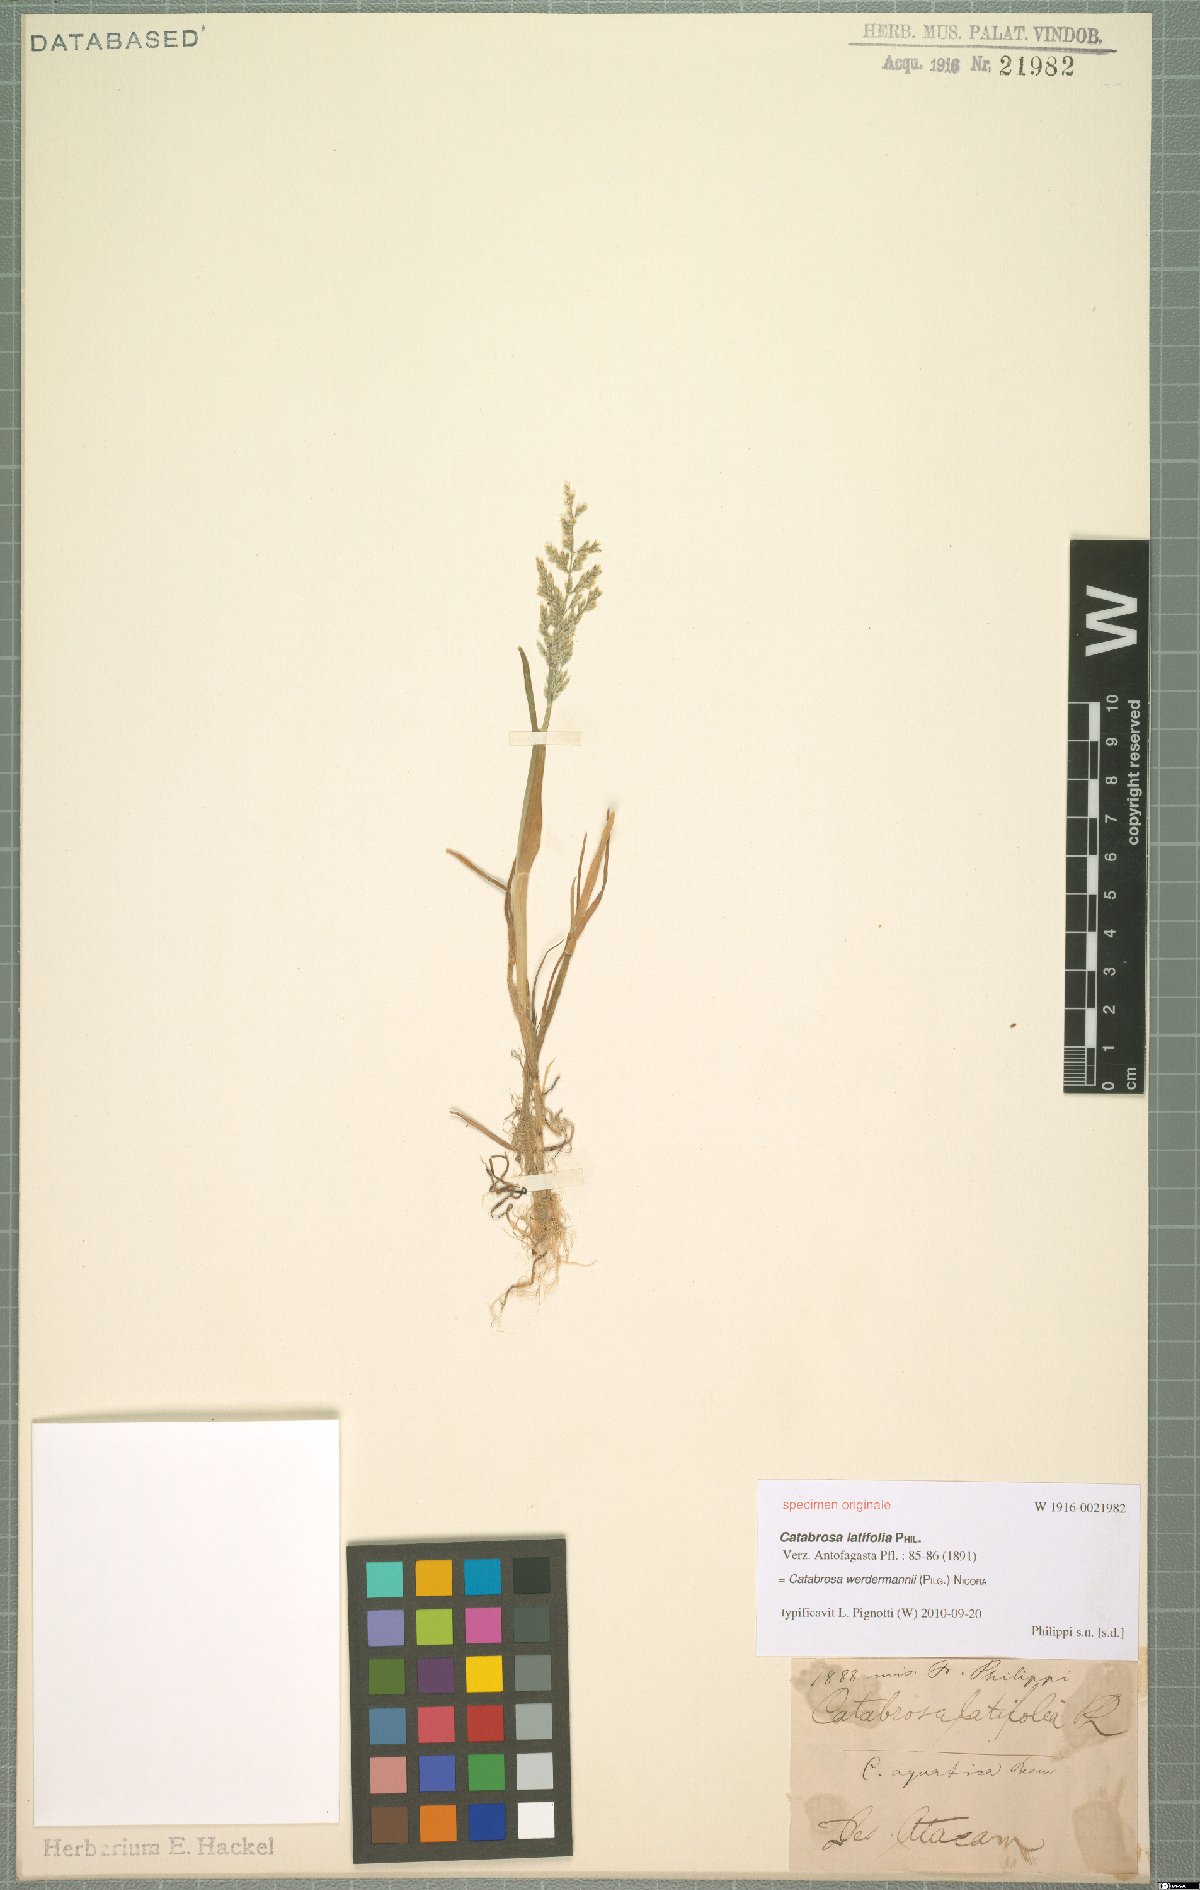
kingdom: Plantae
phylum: Tracheophyta
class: Liliopsida
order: Poales
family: Poaceae
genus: Catabrosa
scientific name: Catabrosa werdermannii
